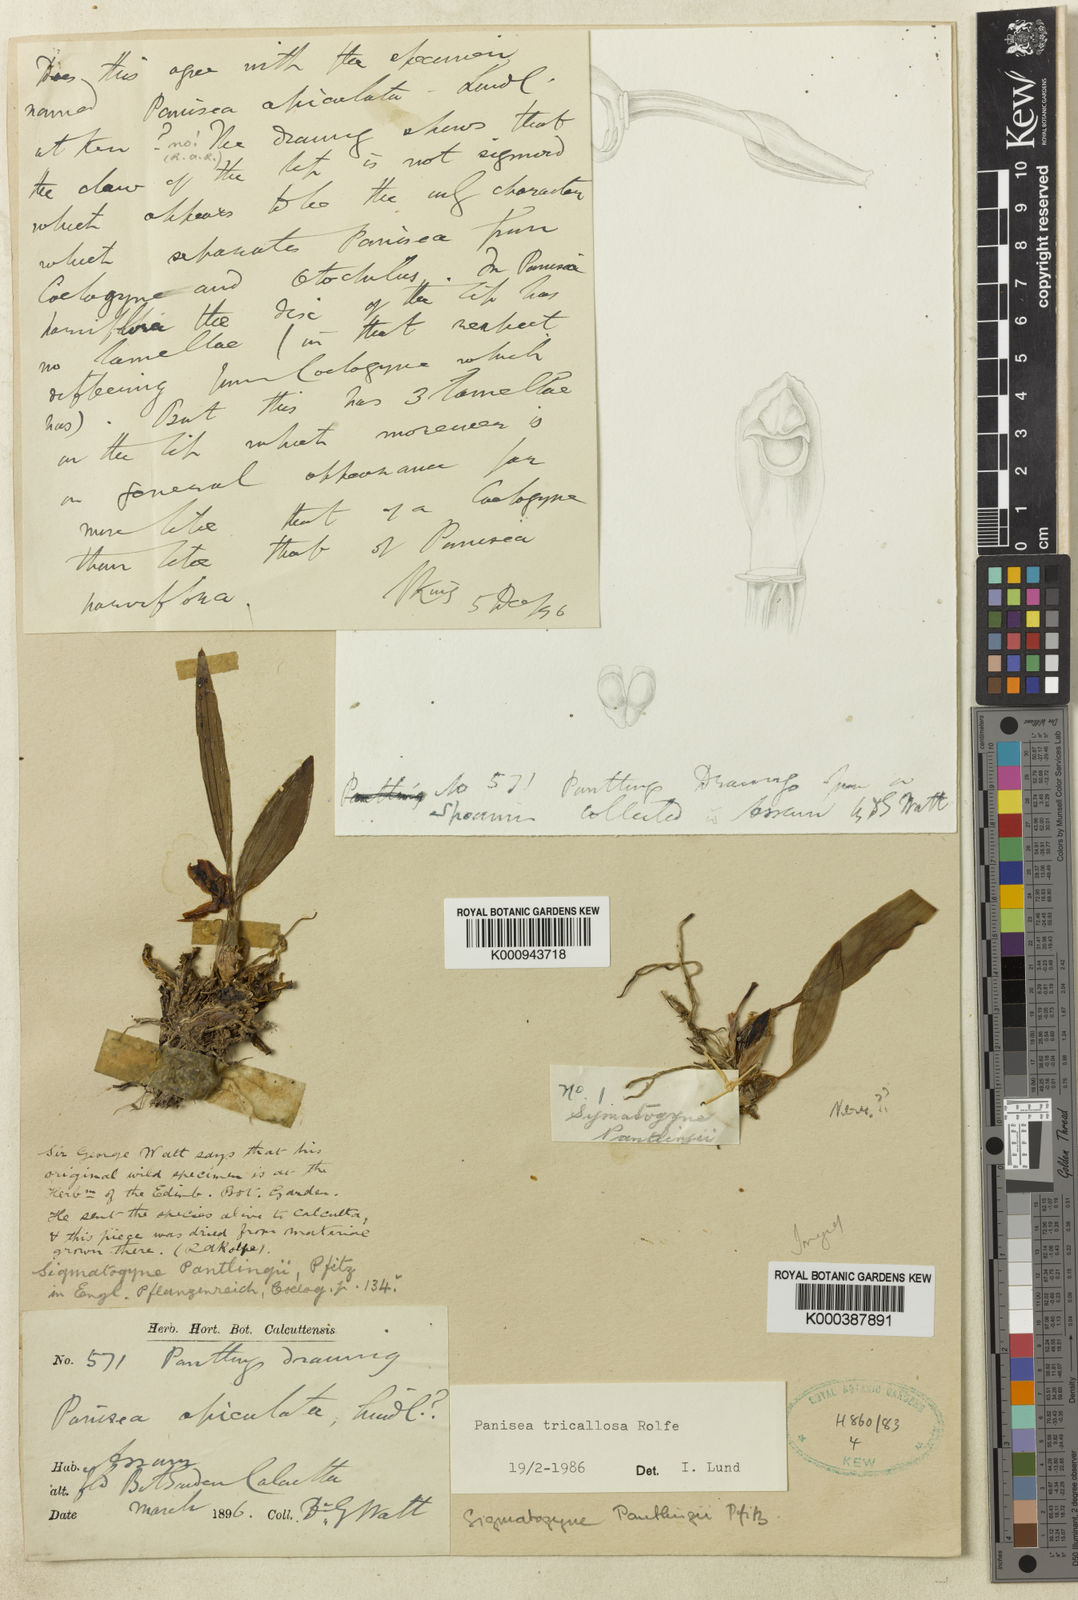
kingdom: Plantae
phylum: Tracheophyta
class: Liliopsida
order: Asparagales
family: Orchidaceae
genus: Coelogyne
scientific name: Coelogyne tricallosa
